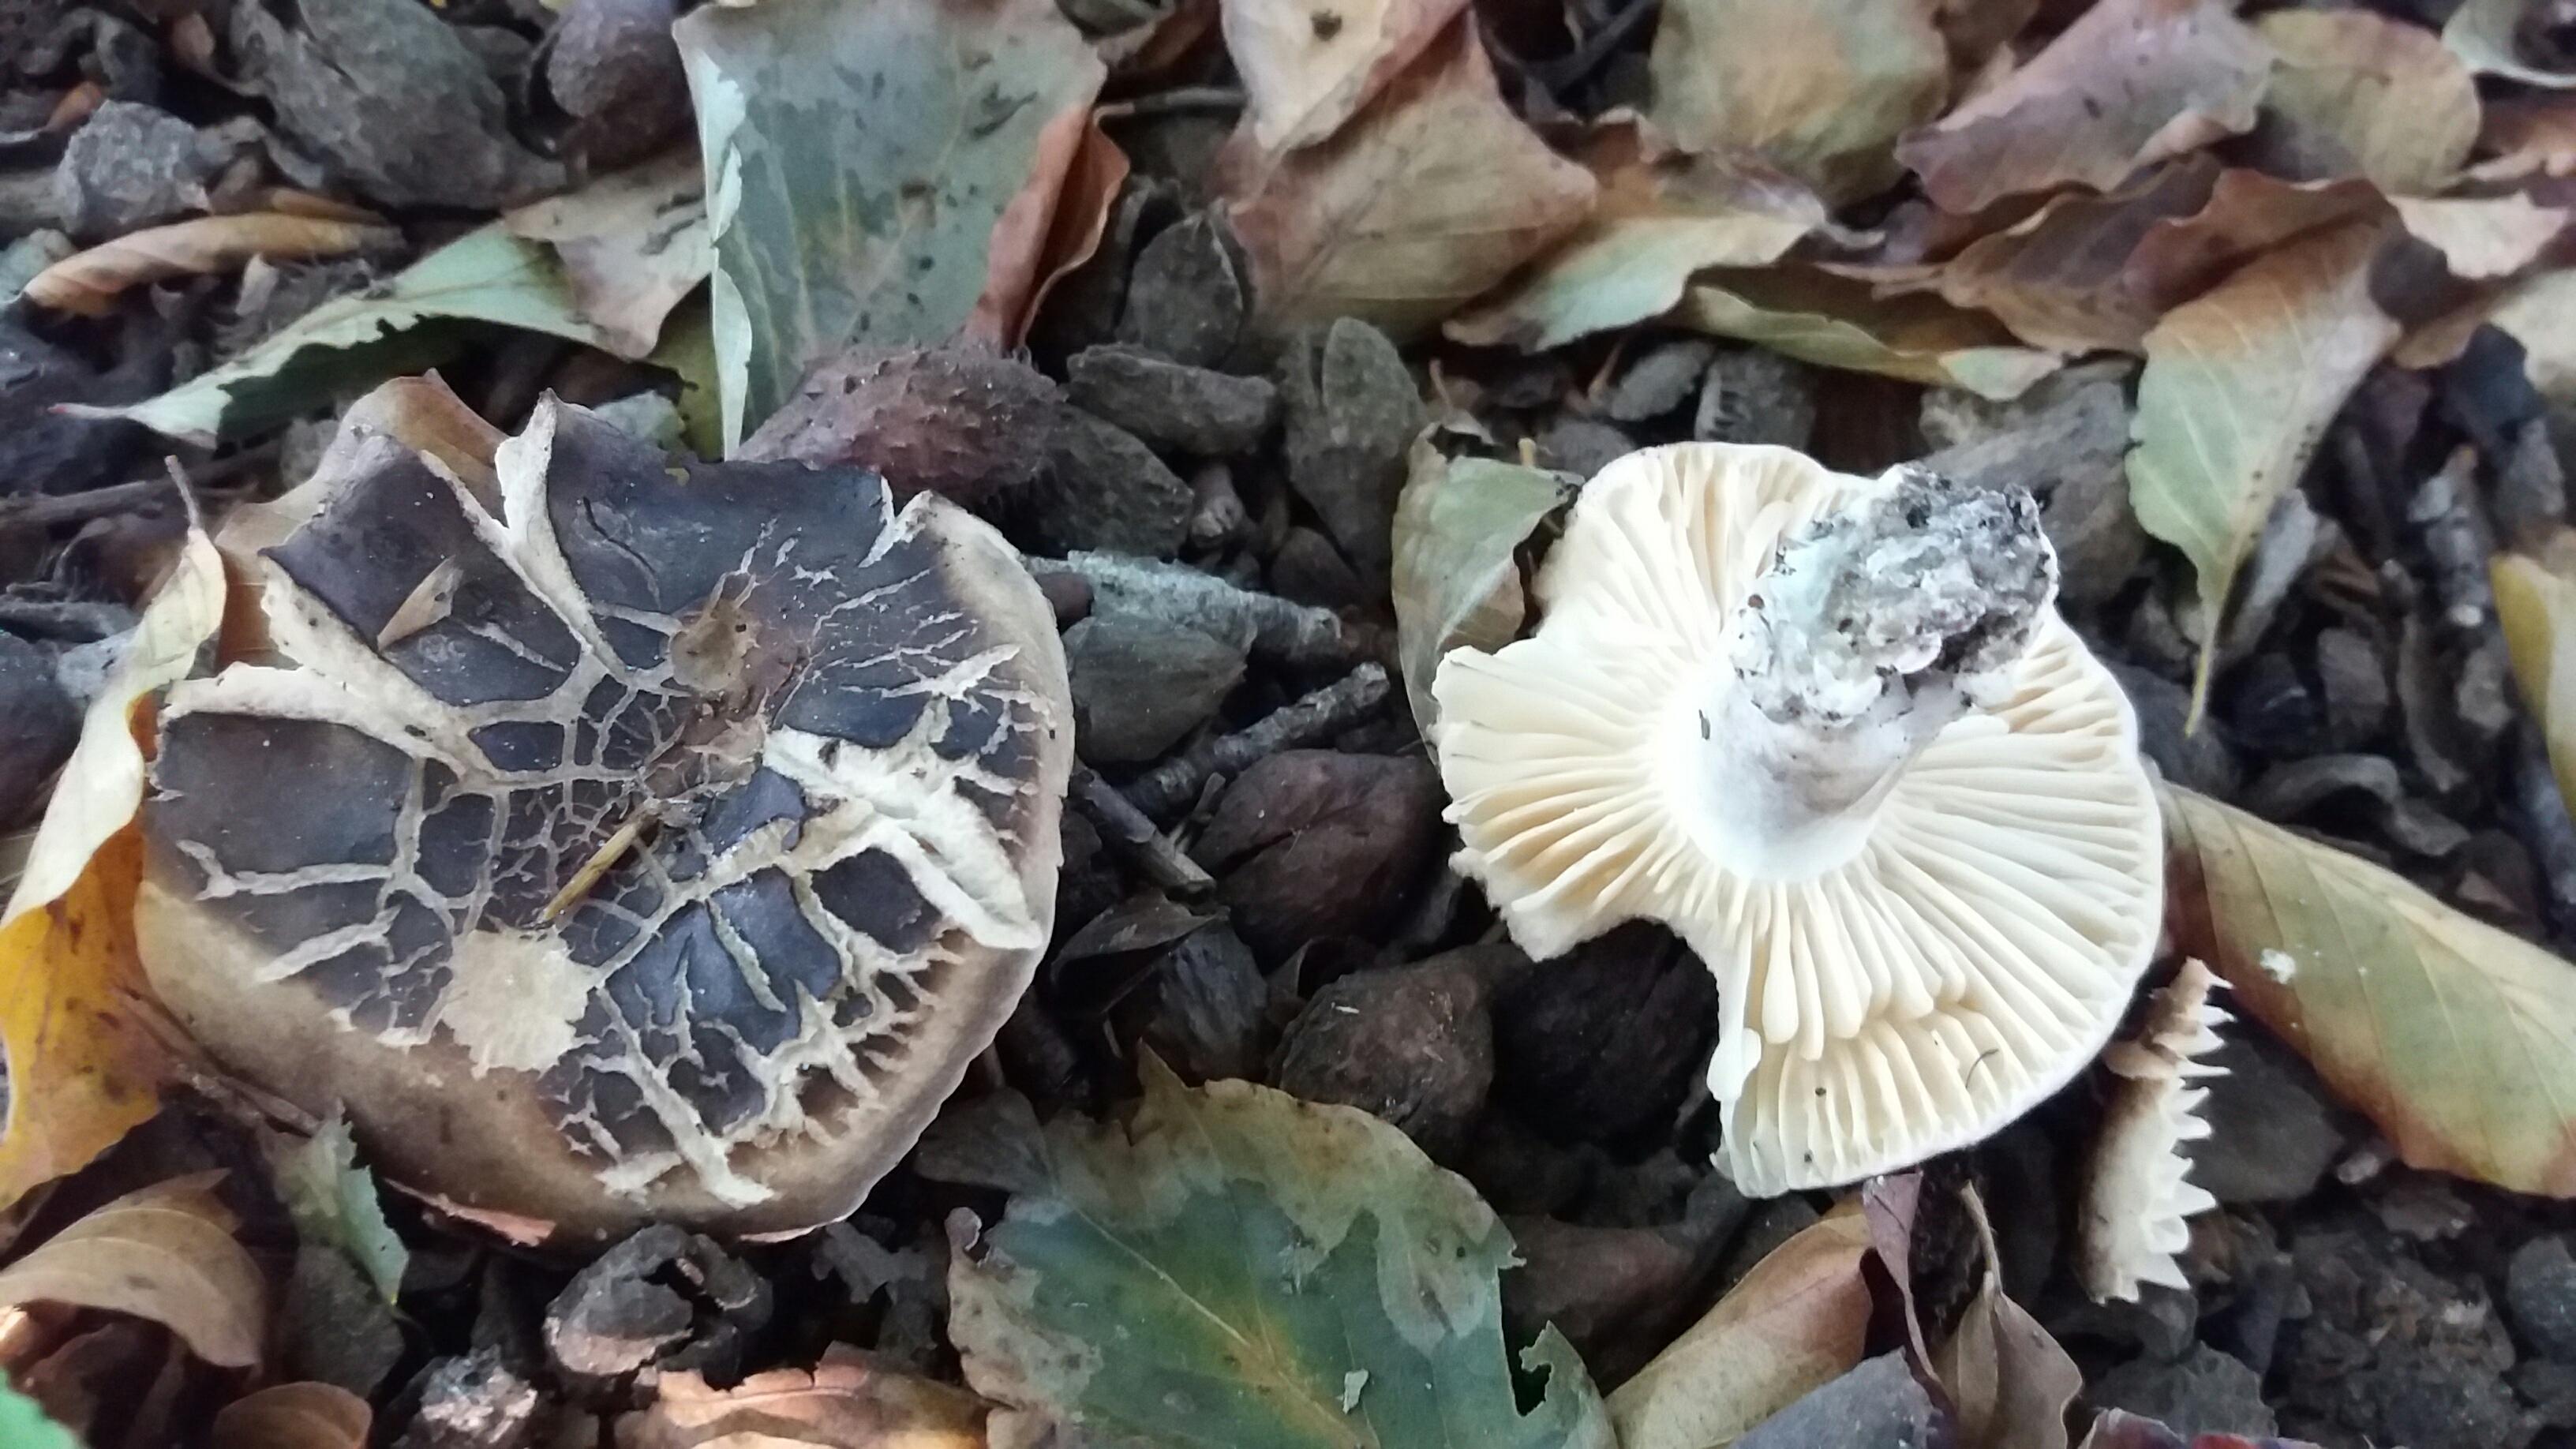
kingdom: Fungi
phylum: Basidiomycota
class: Agaricomycetes
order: Russulales
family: Russulaceae
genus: Russula
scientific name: Russula adusta
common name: sværtende skørhat
